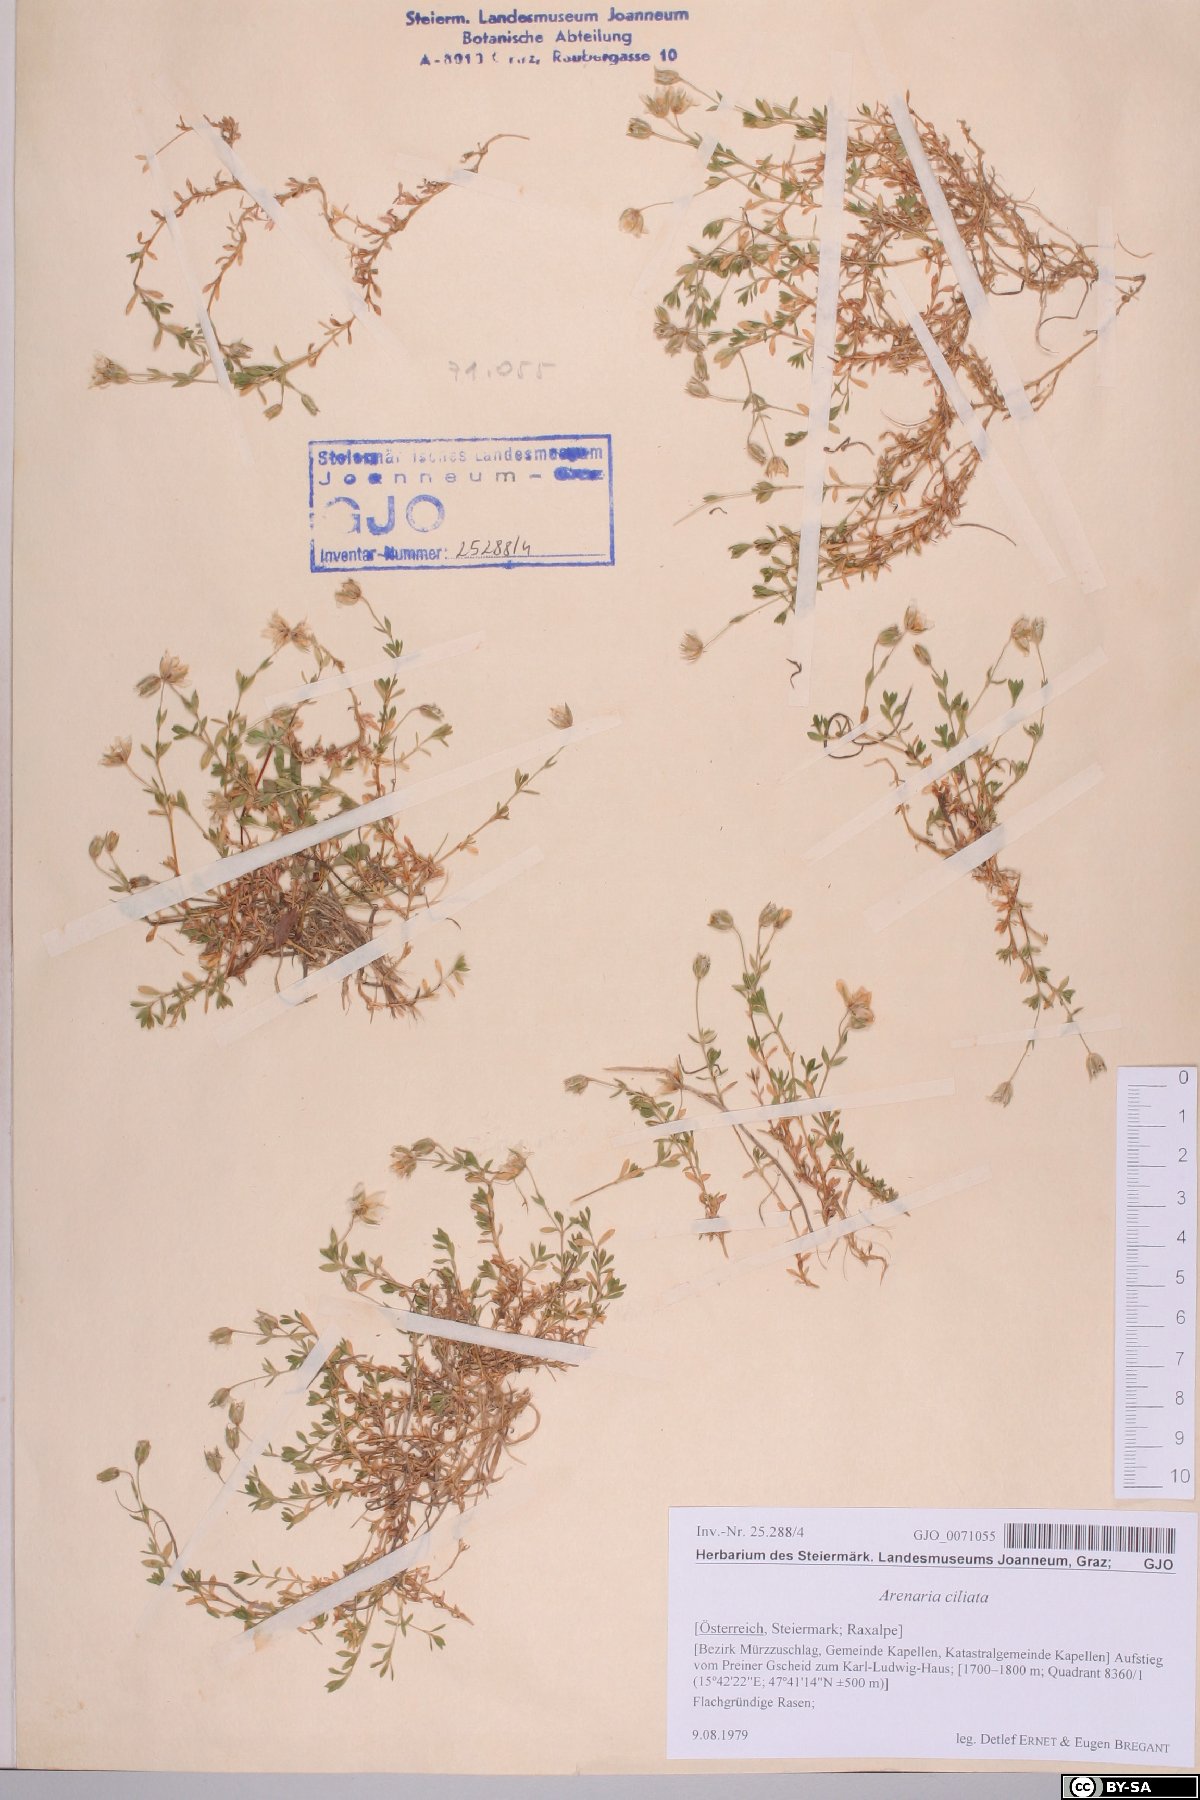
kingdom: Plantae
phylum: Tracheophyta
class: Magnoliopsida
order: Caryophyllales
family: Caryophyllaceae
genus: Arenaria
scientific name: Arenaria ciliata
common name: Fringed sandwort
